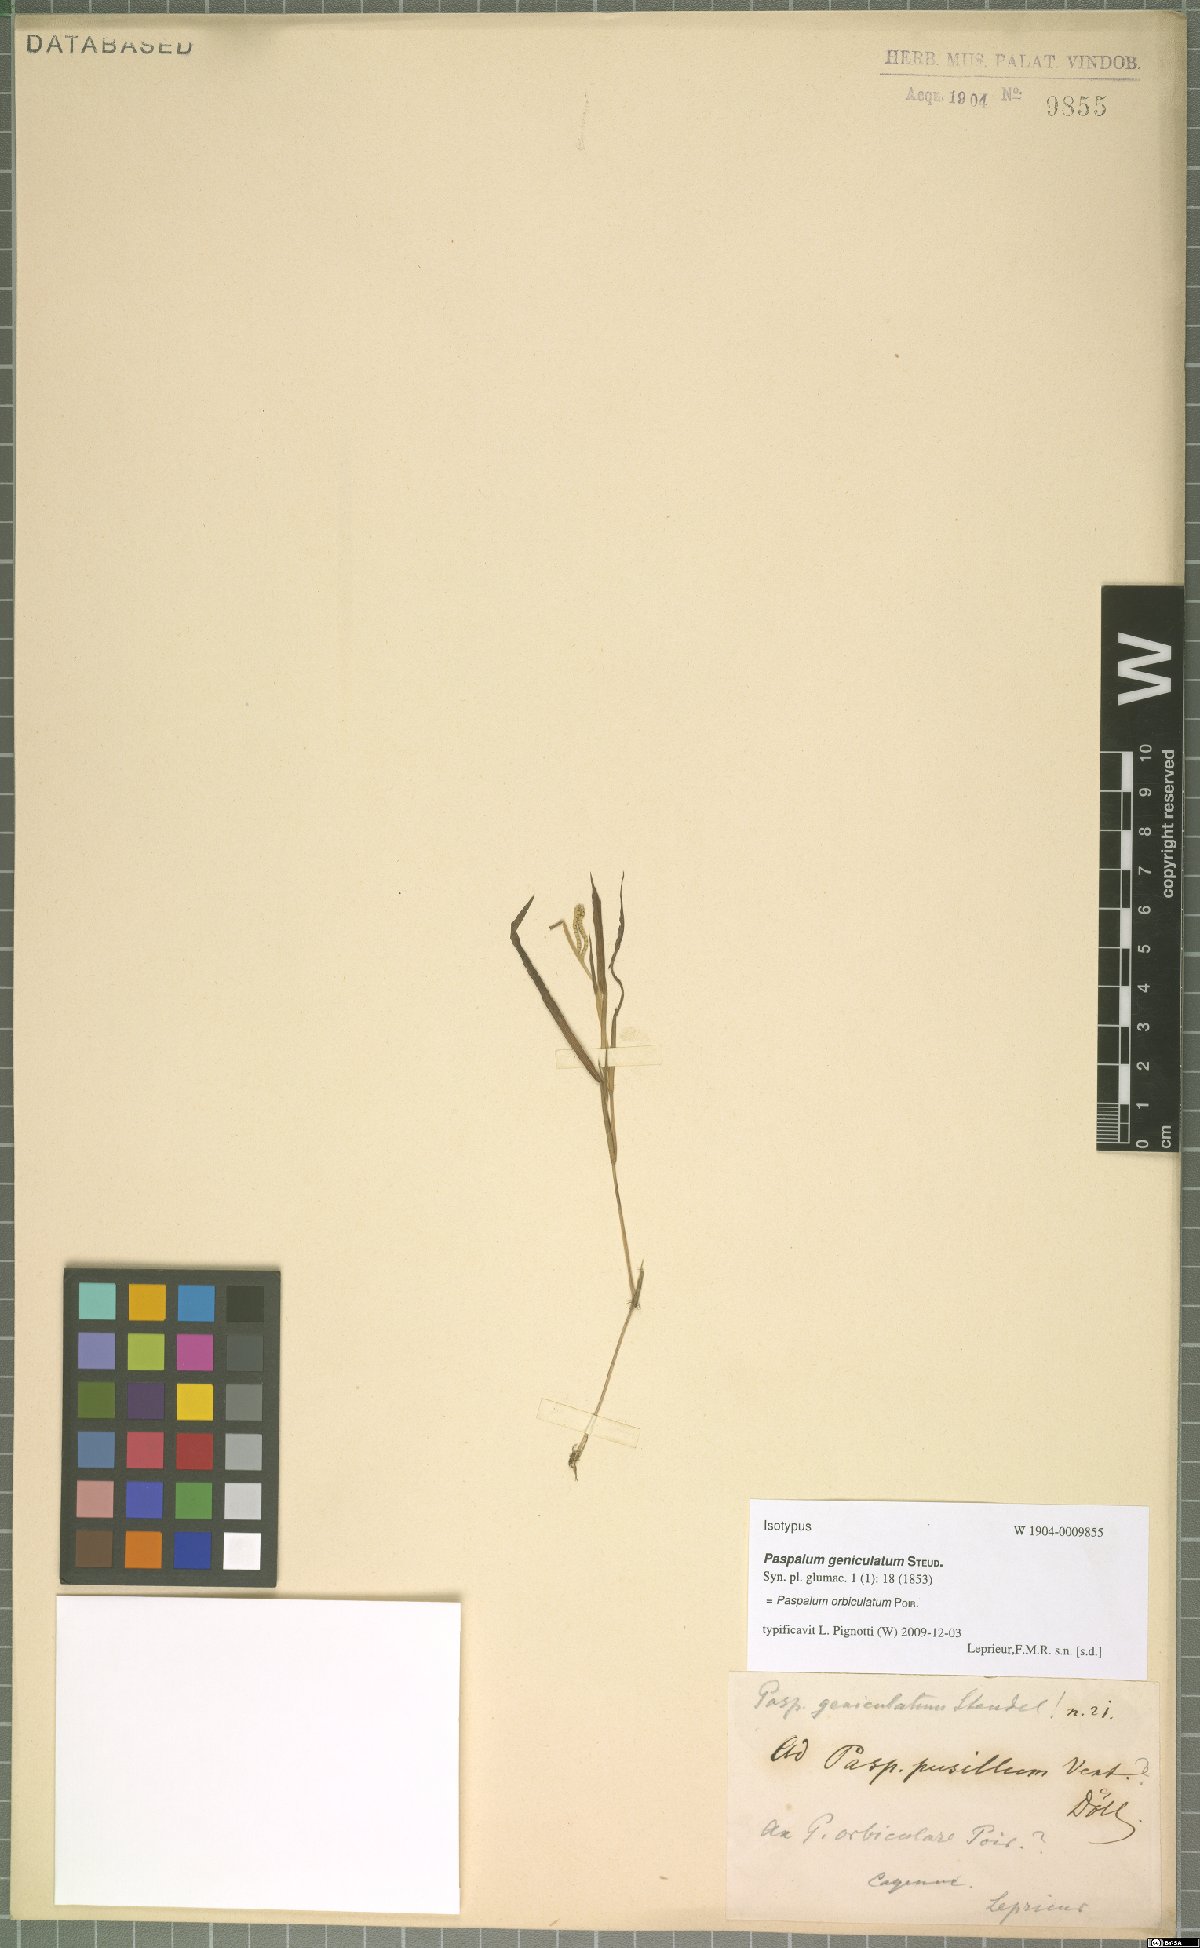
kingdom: Plantae
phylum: Tracheophyta
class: Liliopsida
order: Poales
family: Poaceae
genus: Paspalum
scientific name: Paspalum orbiculatum
